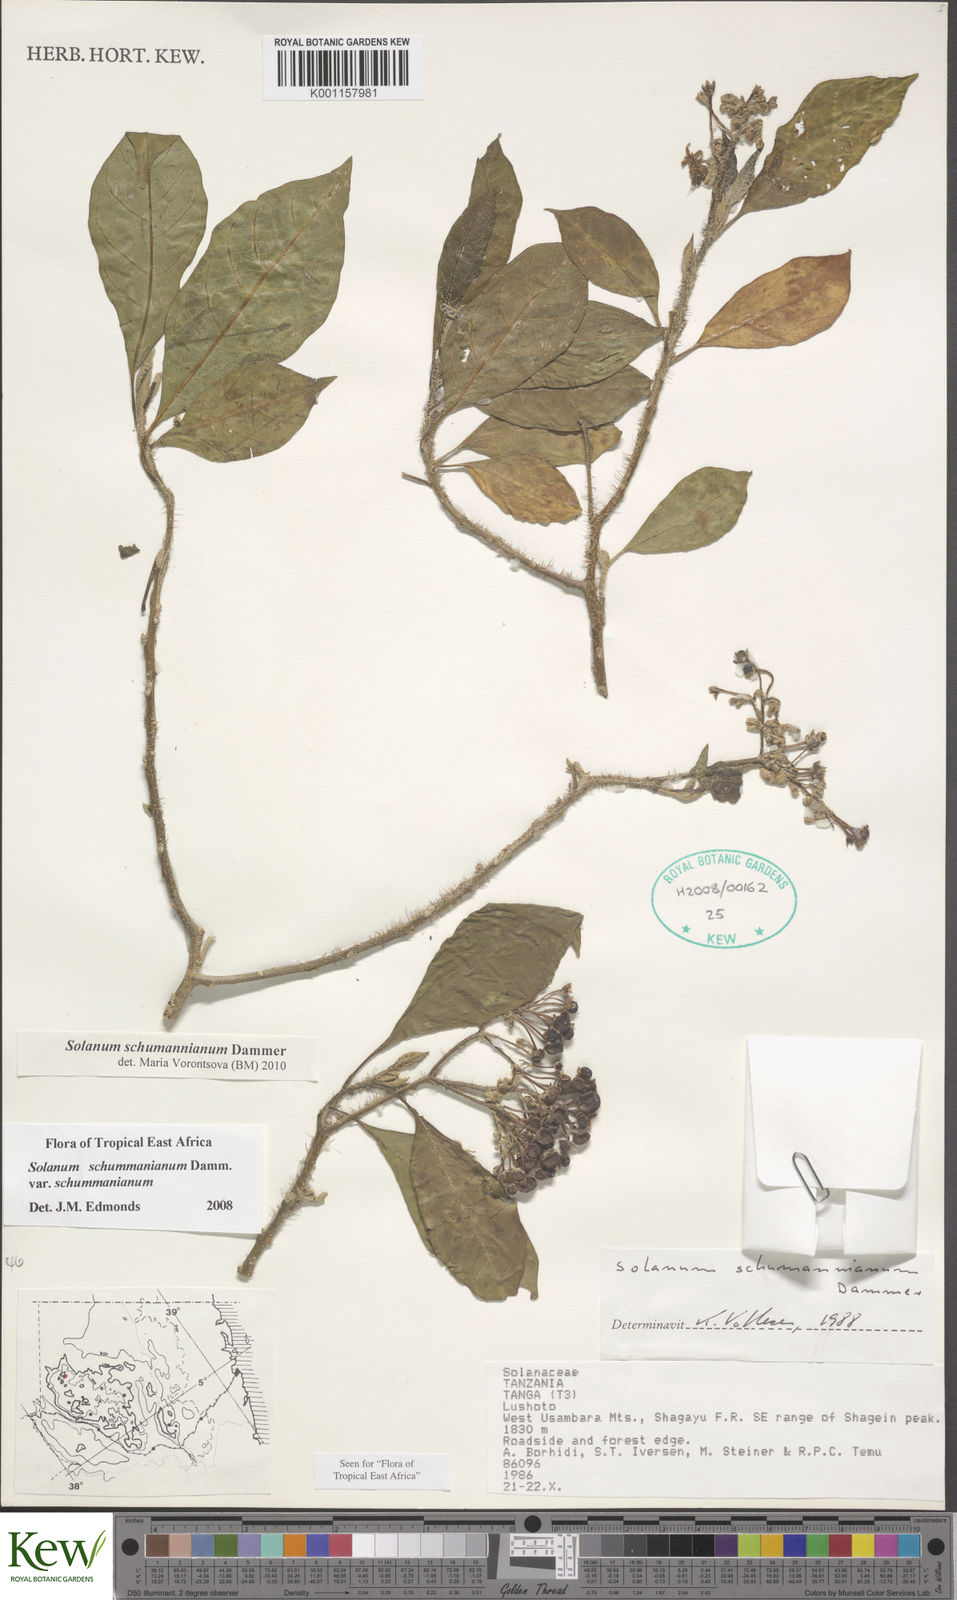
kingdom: Plantae
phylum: Tracheophyta
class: Magnoliopsida
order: Solanales
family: Solanaceae
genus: Solanum
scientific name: Solanum schumannianum
